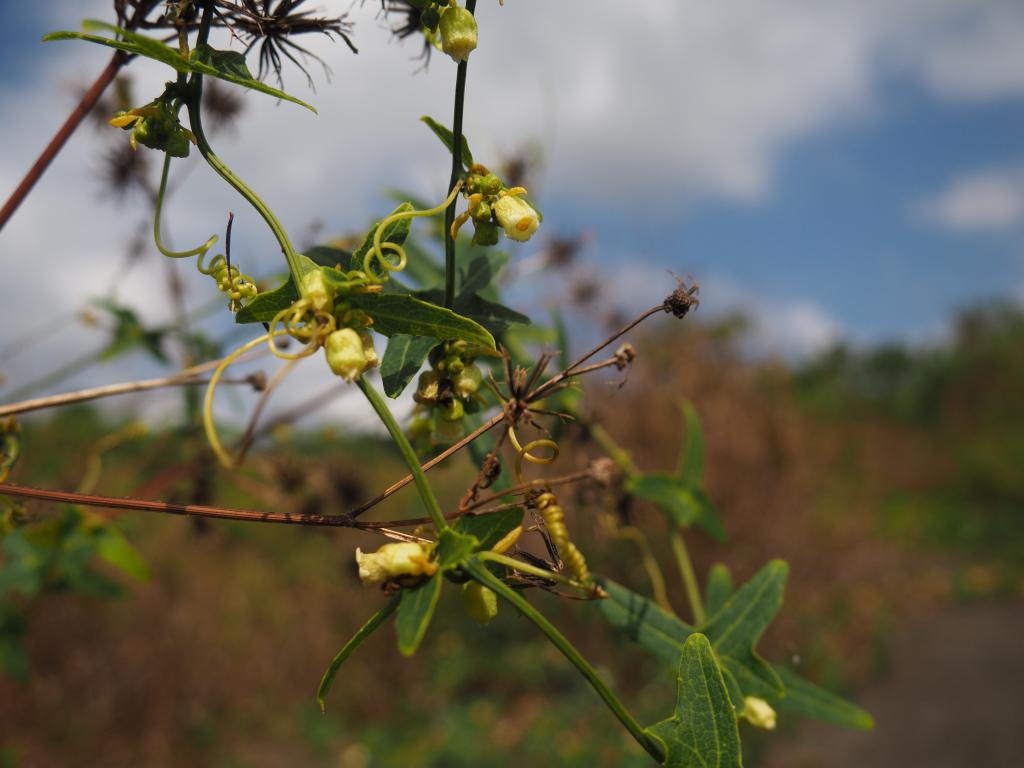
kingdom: Plantae
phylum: Tracheophyta
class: Magnoliopsida
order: Cucurbitales
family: Cucurbitaceae
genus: Solena
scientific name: Solena amplexicaulis
